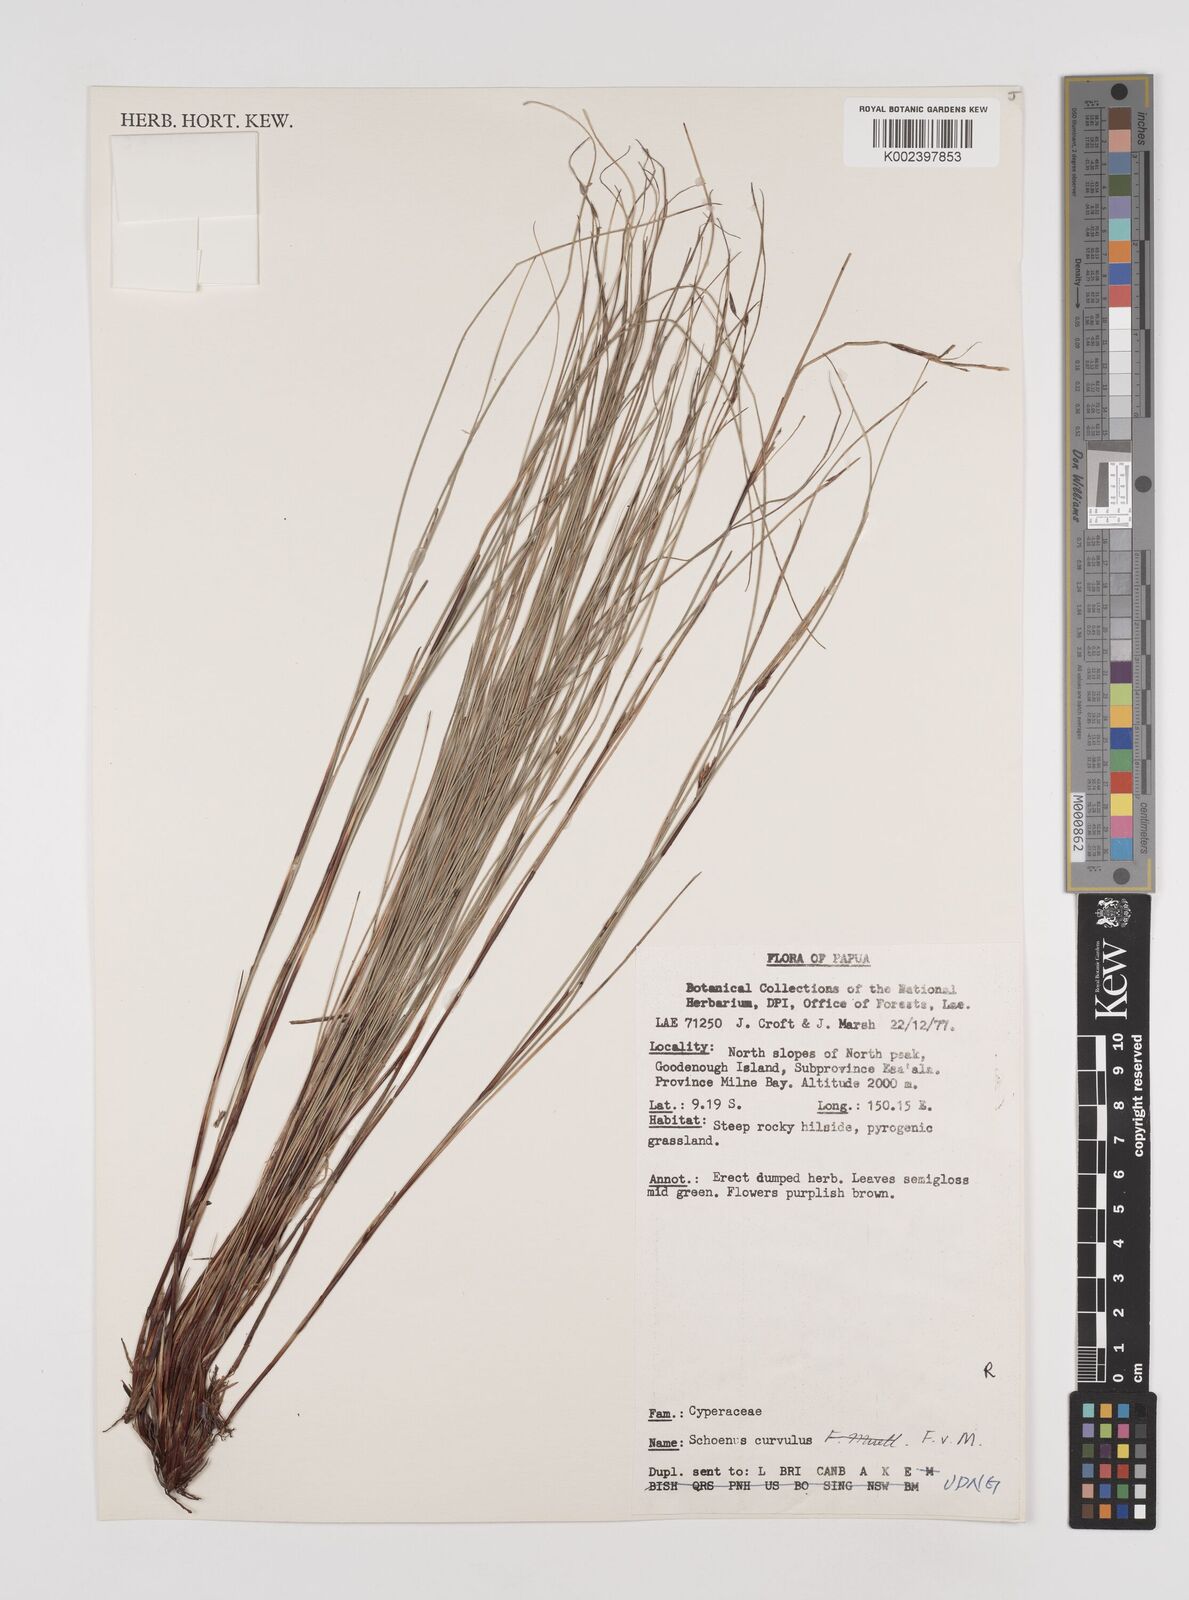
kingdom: Plantae
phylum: Tracheophyta
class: Liliopsida
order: Poales
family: Cyperaceae
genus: Schoenus
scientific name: Schoenus curvulus
